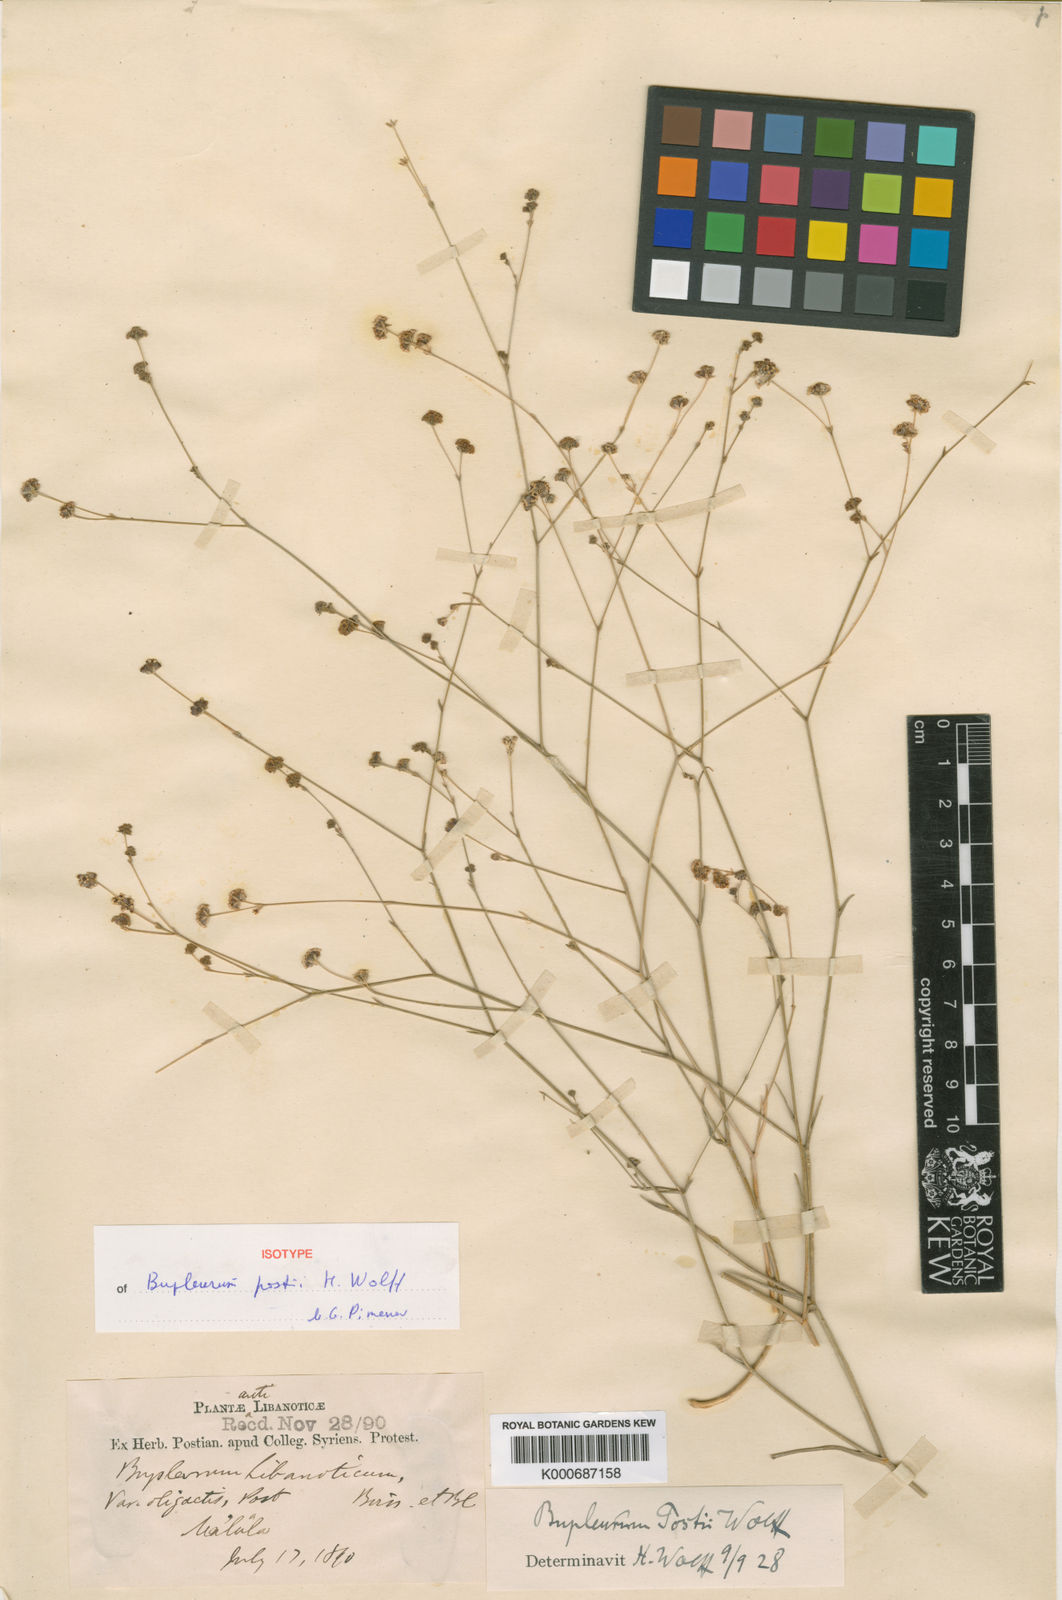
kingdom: Plantae
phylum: Tracheophyta
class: Magnoliopsida
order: Apiales
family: Apiaceae
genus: Bupleurum
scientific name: Bupleurum postii
